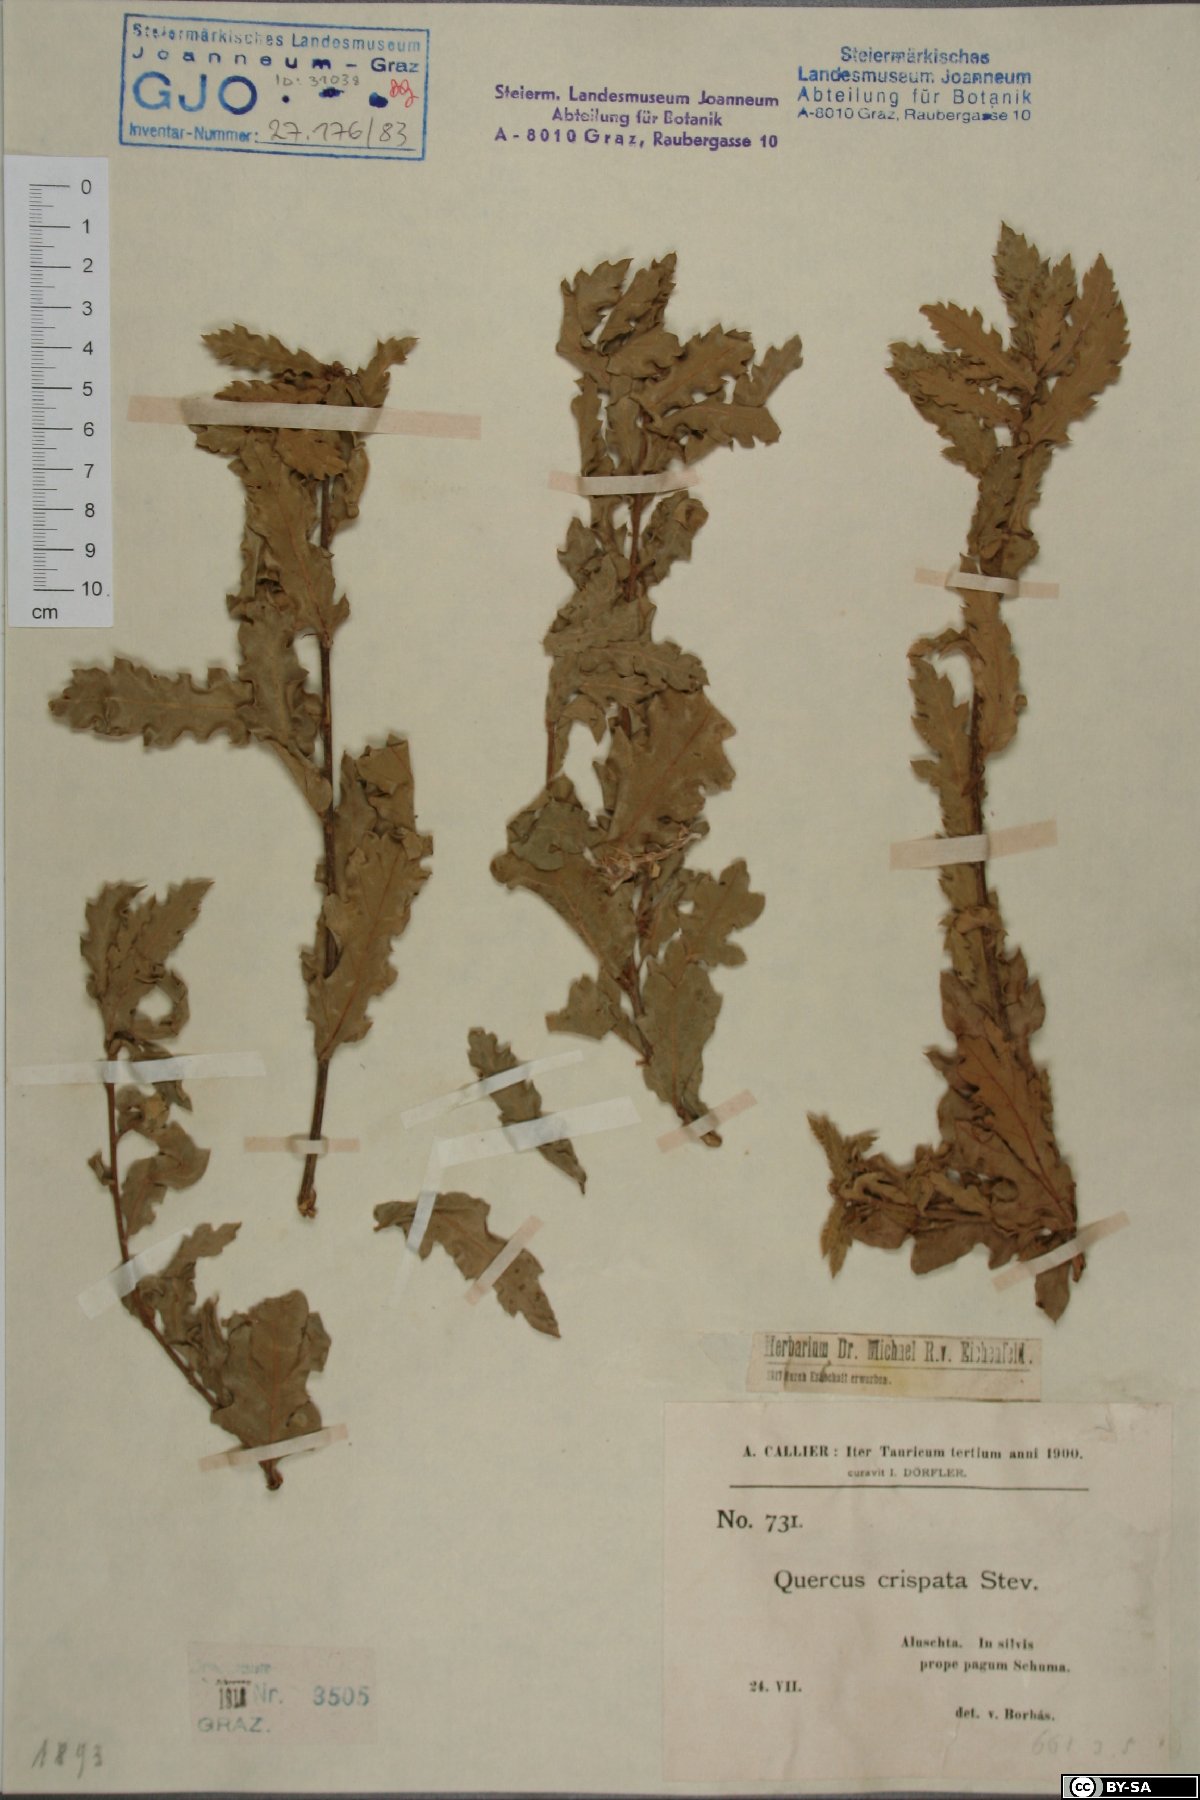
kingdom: Plantae
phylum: Tracheophyta
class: Magnoliopsida
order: Fagales
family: Fagaceae
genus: Quercus
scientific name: Quercus pubescens
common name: Downy oak
